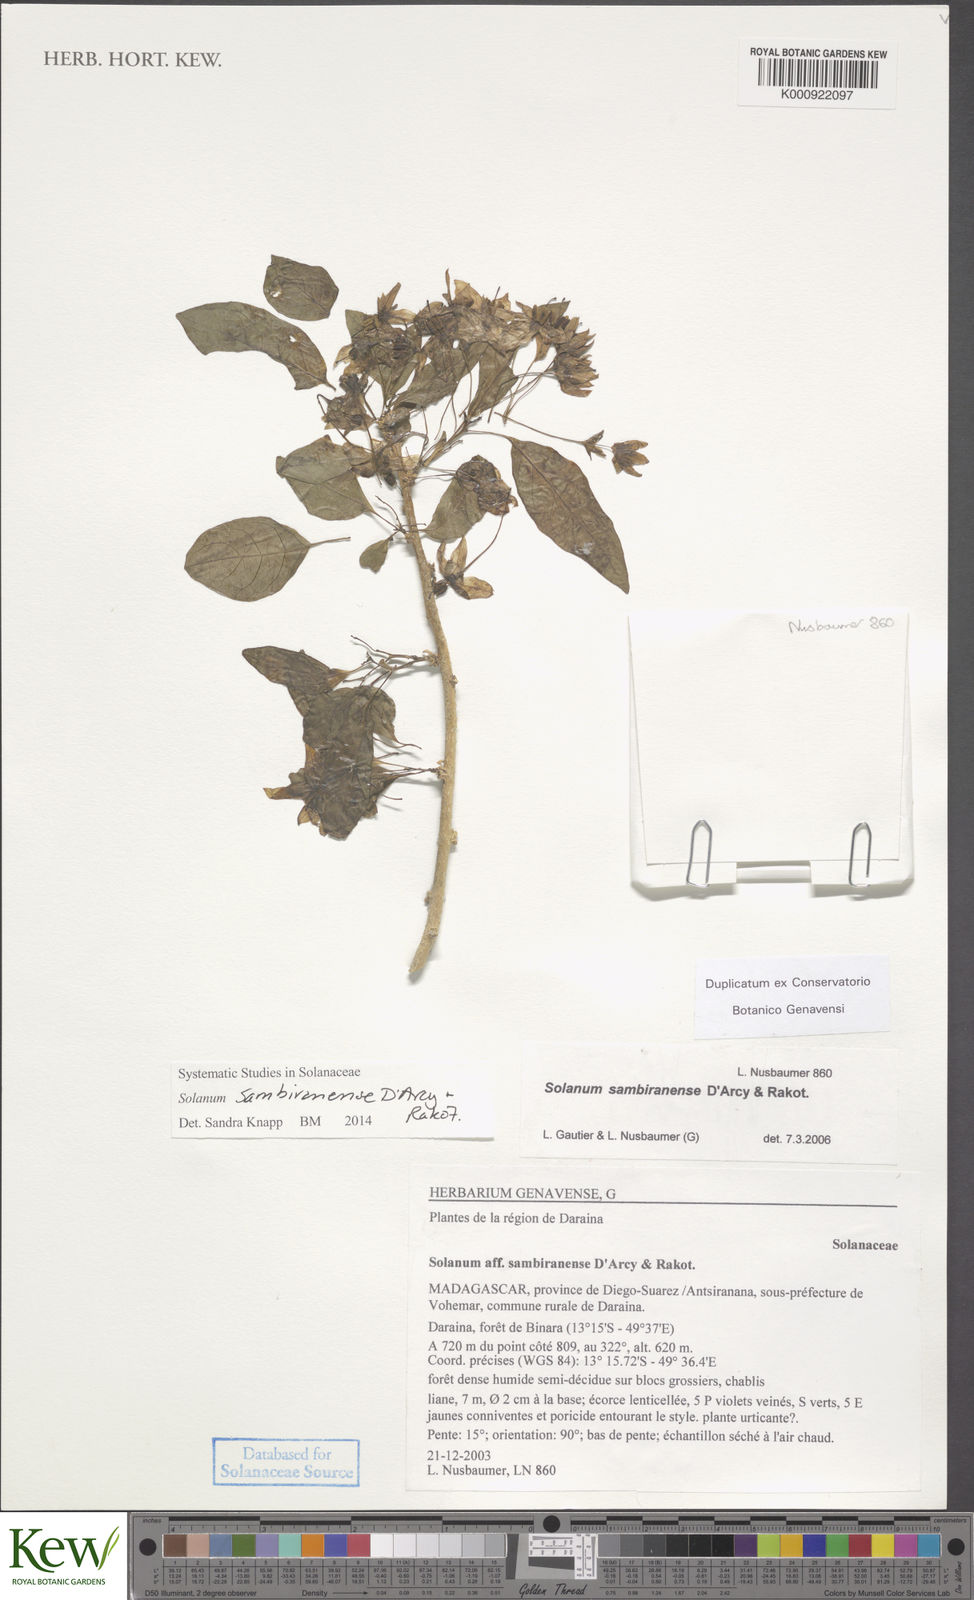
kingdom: Plantae
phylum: Tracheophyta
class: Magnoliopsida
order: Solanales
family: Solanaceae
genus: Solanum
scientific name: Solanum sambiranense
